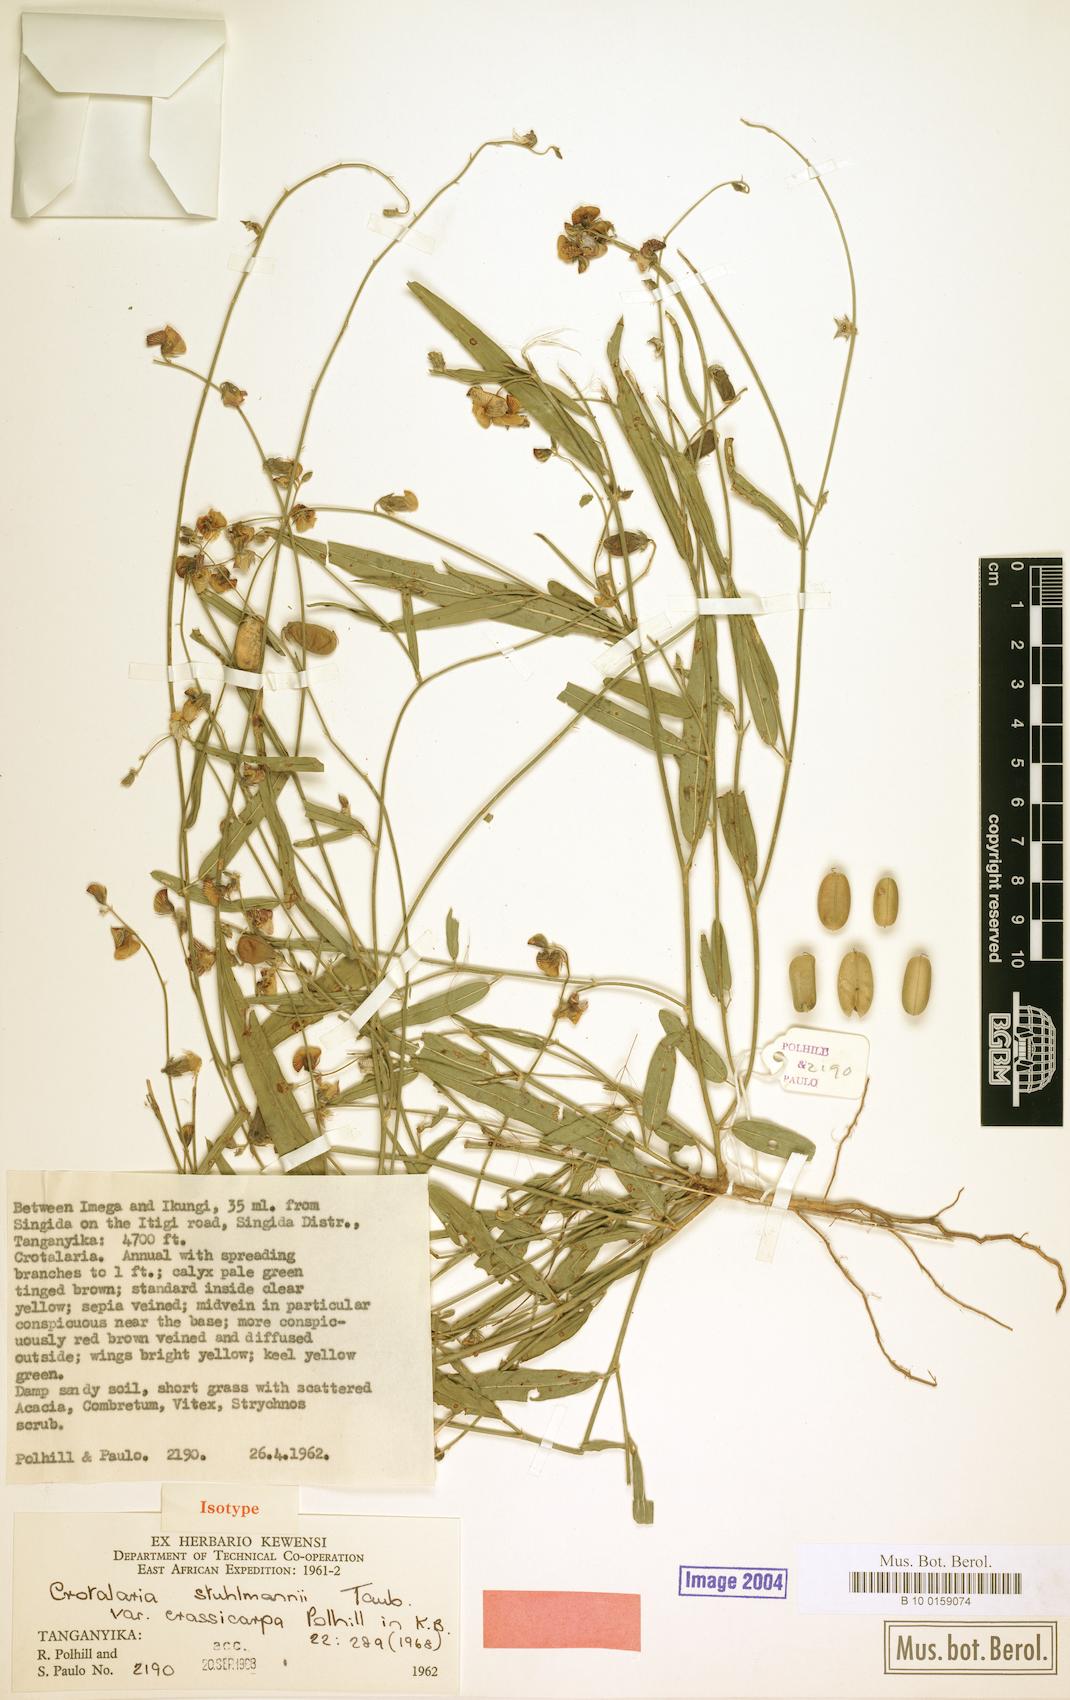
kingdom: Plantae
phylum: Tracheophyta
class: Magnoliopsida
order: Fabales
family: Fabaceae
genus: Crotalaria
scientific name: Crotalaria stuhlmannii
